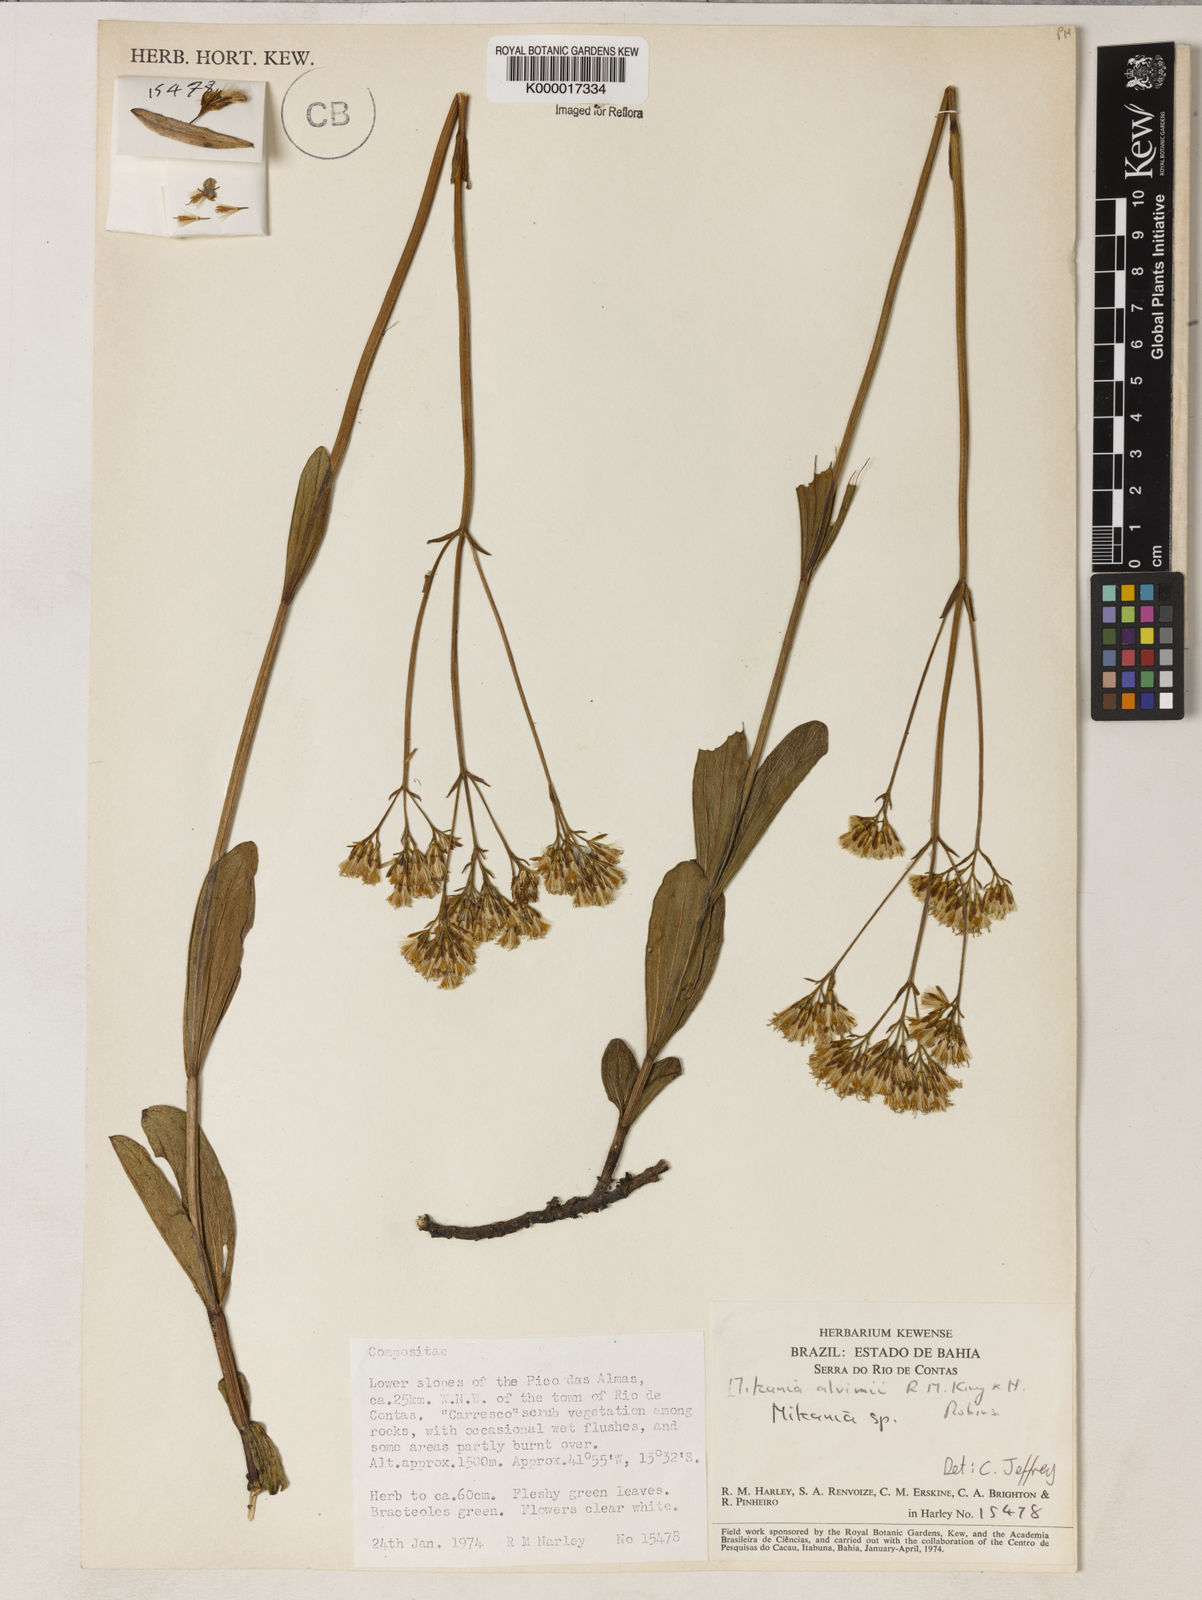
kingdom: Plantae
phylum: Tracheophyta
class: Magnoliopsida
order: Asterales
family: Asteraceae
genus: Mikania
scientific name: Mikania alvimii
